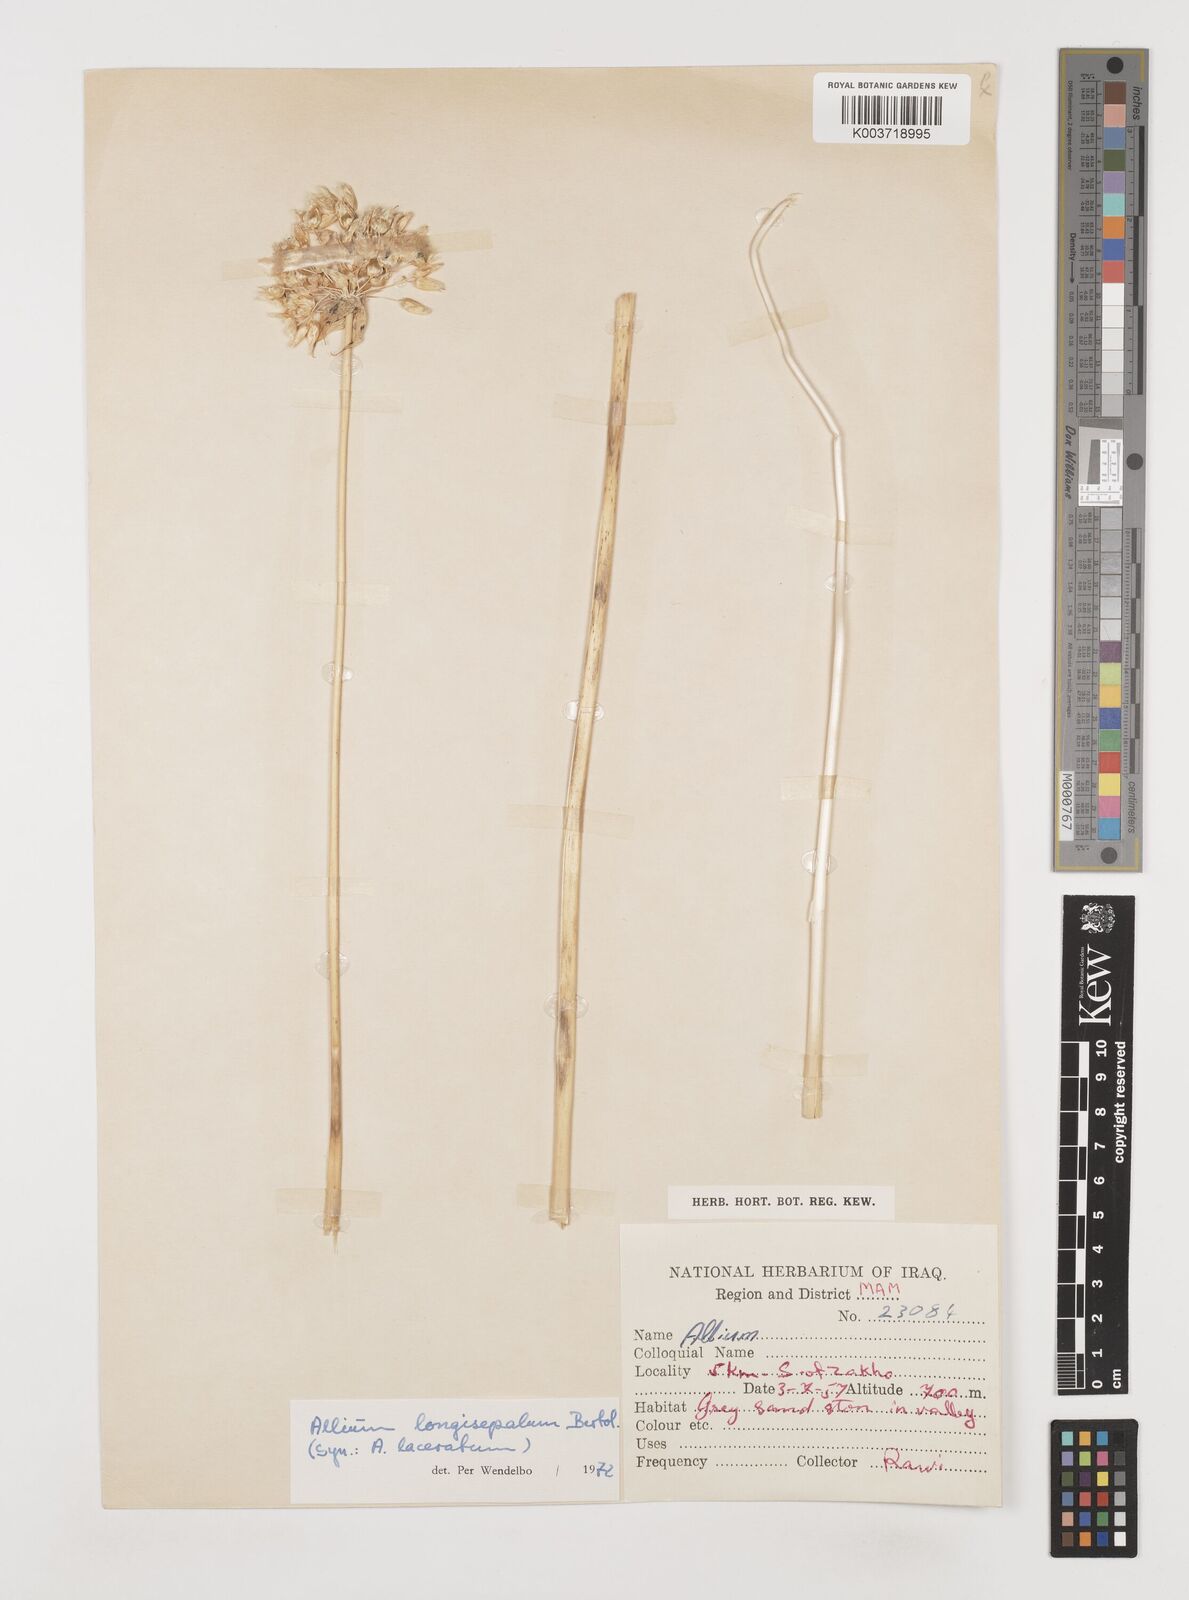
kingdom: Plantae
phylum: Tracheophyta
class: Liliopsida
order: Asparagales
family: Amaryllidaceae
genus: Allium
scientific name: Allium longisepalum
